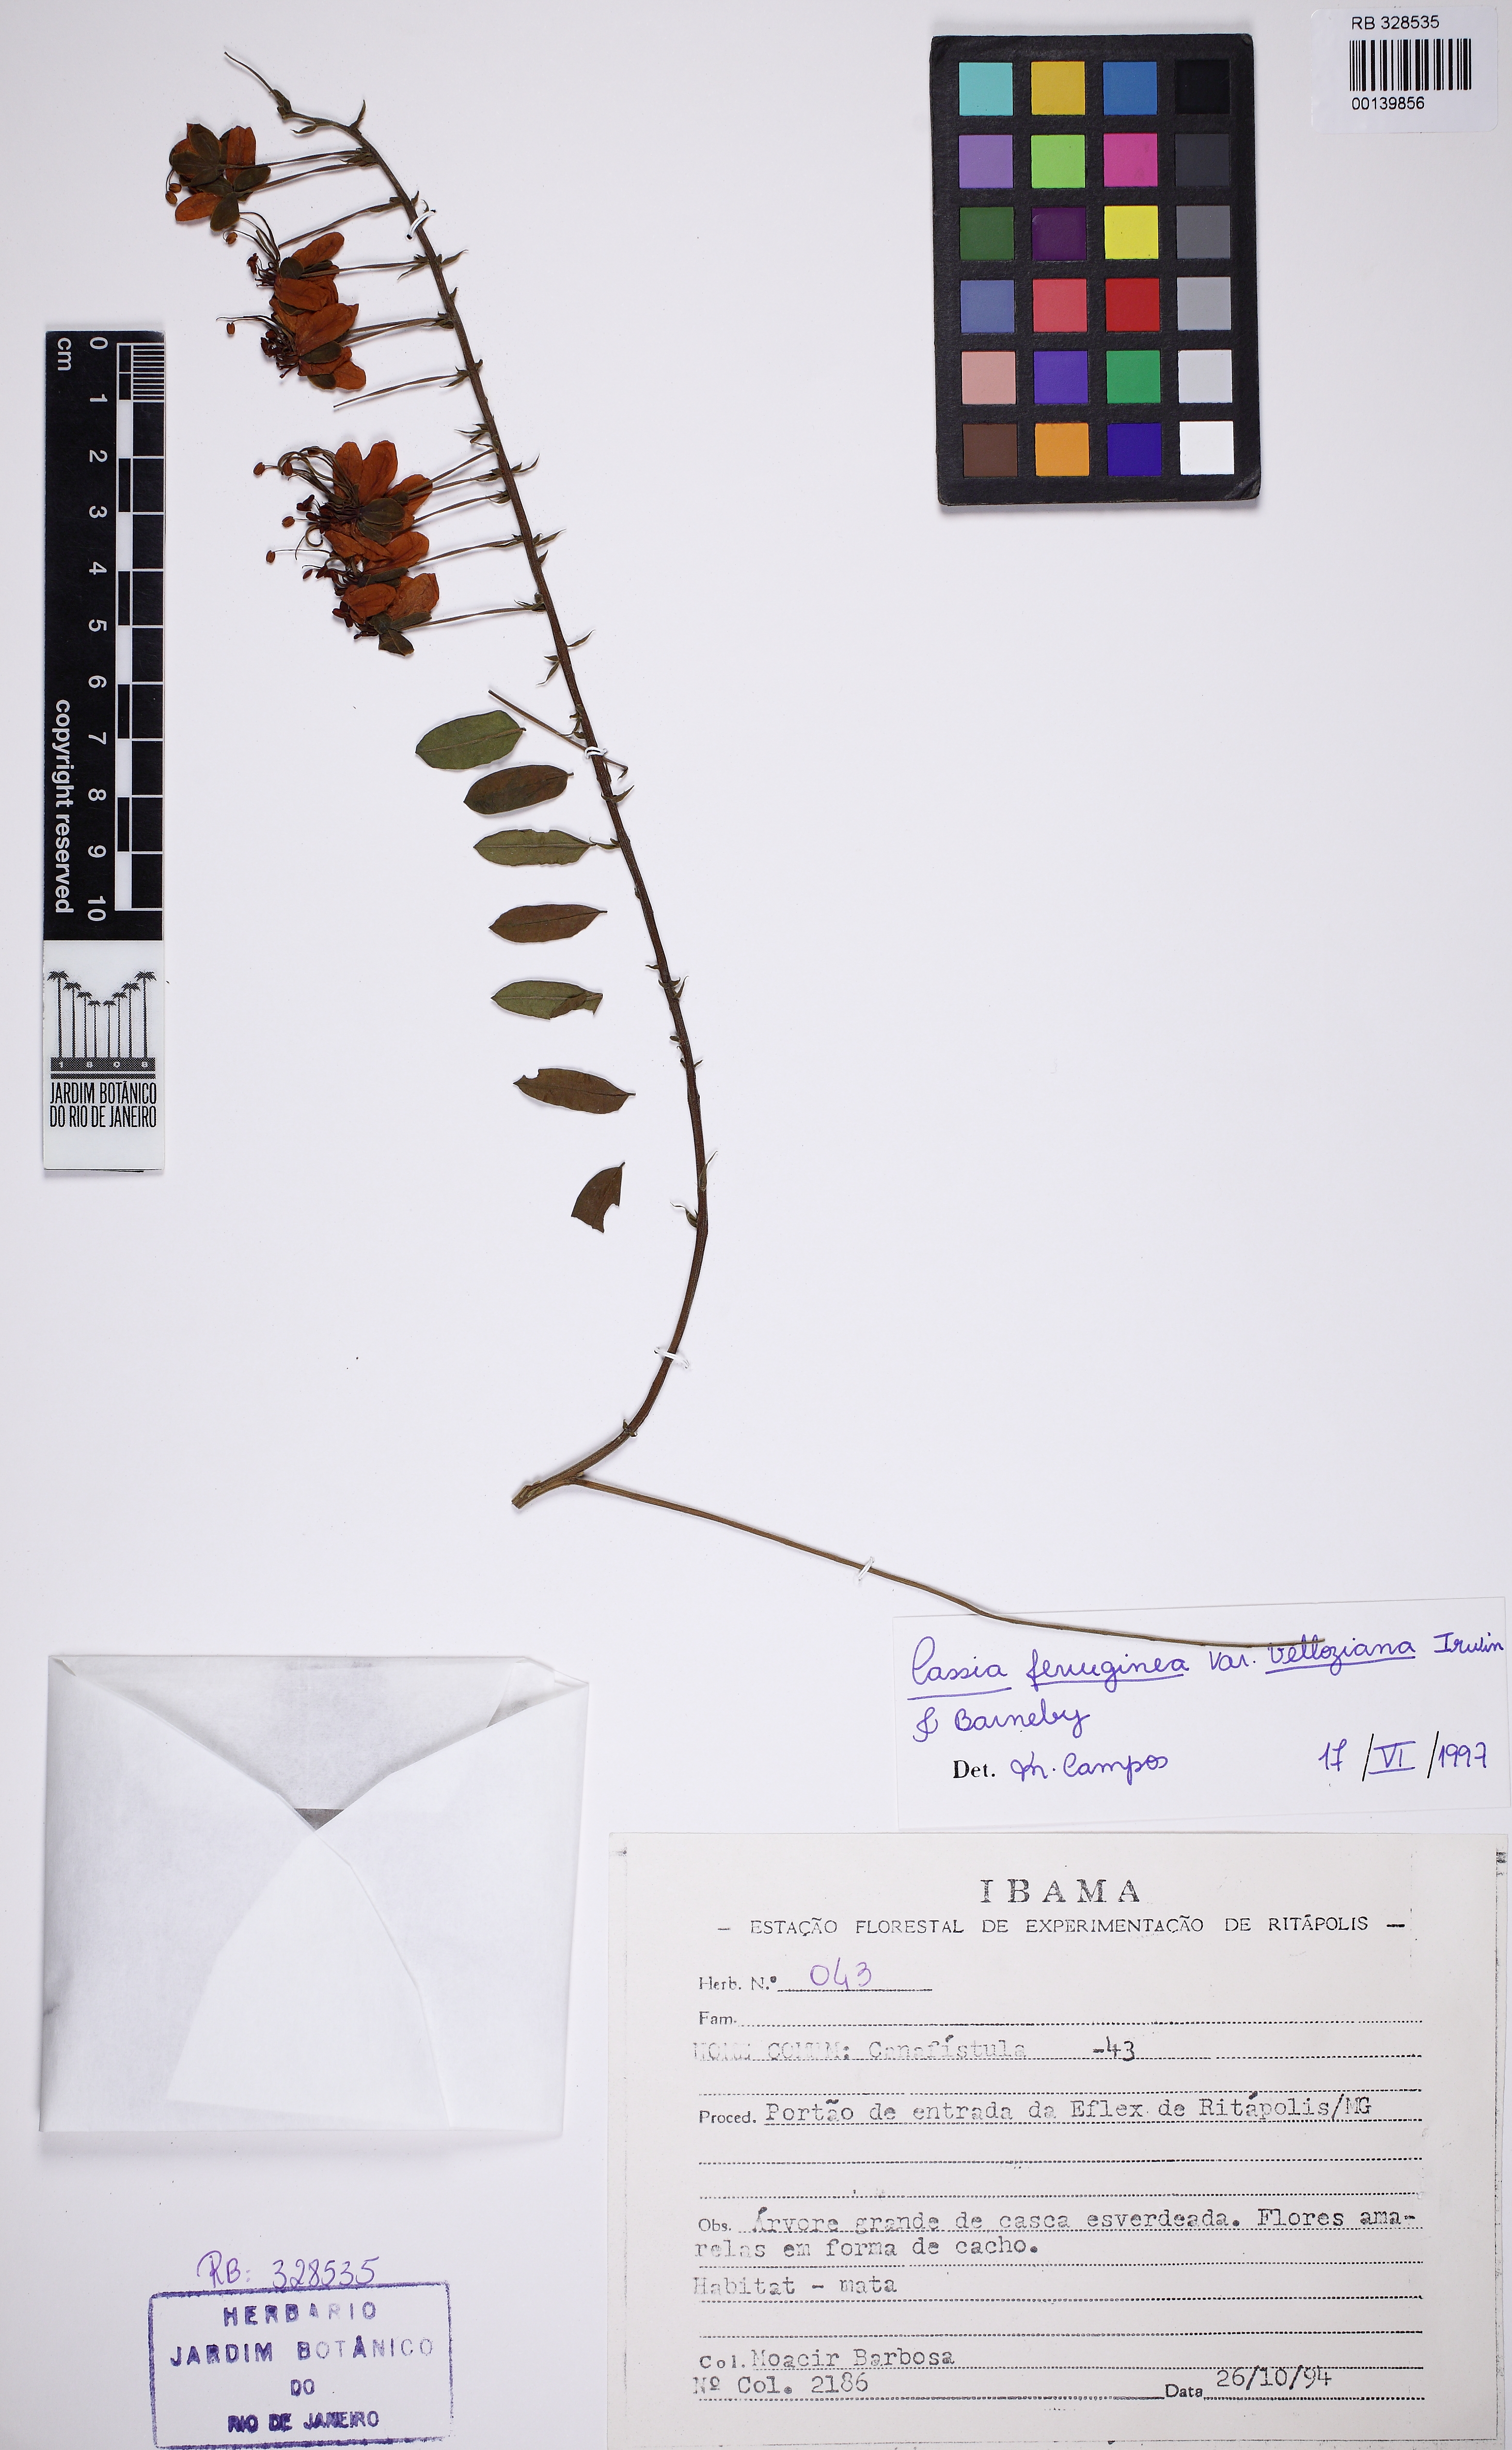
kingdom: Plantae
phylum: Tracheophyta
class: Magnoliopsida
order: Fabales
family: Fabaceae
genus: Cassia
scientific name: Cassia ferruginea
